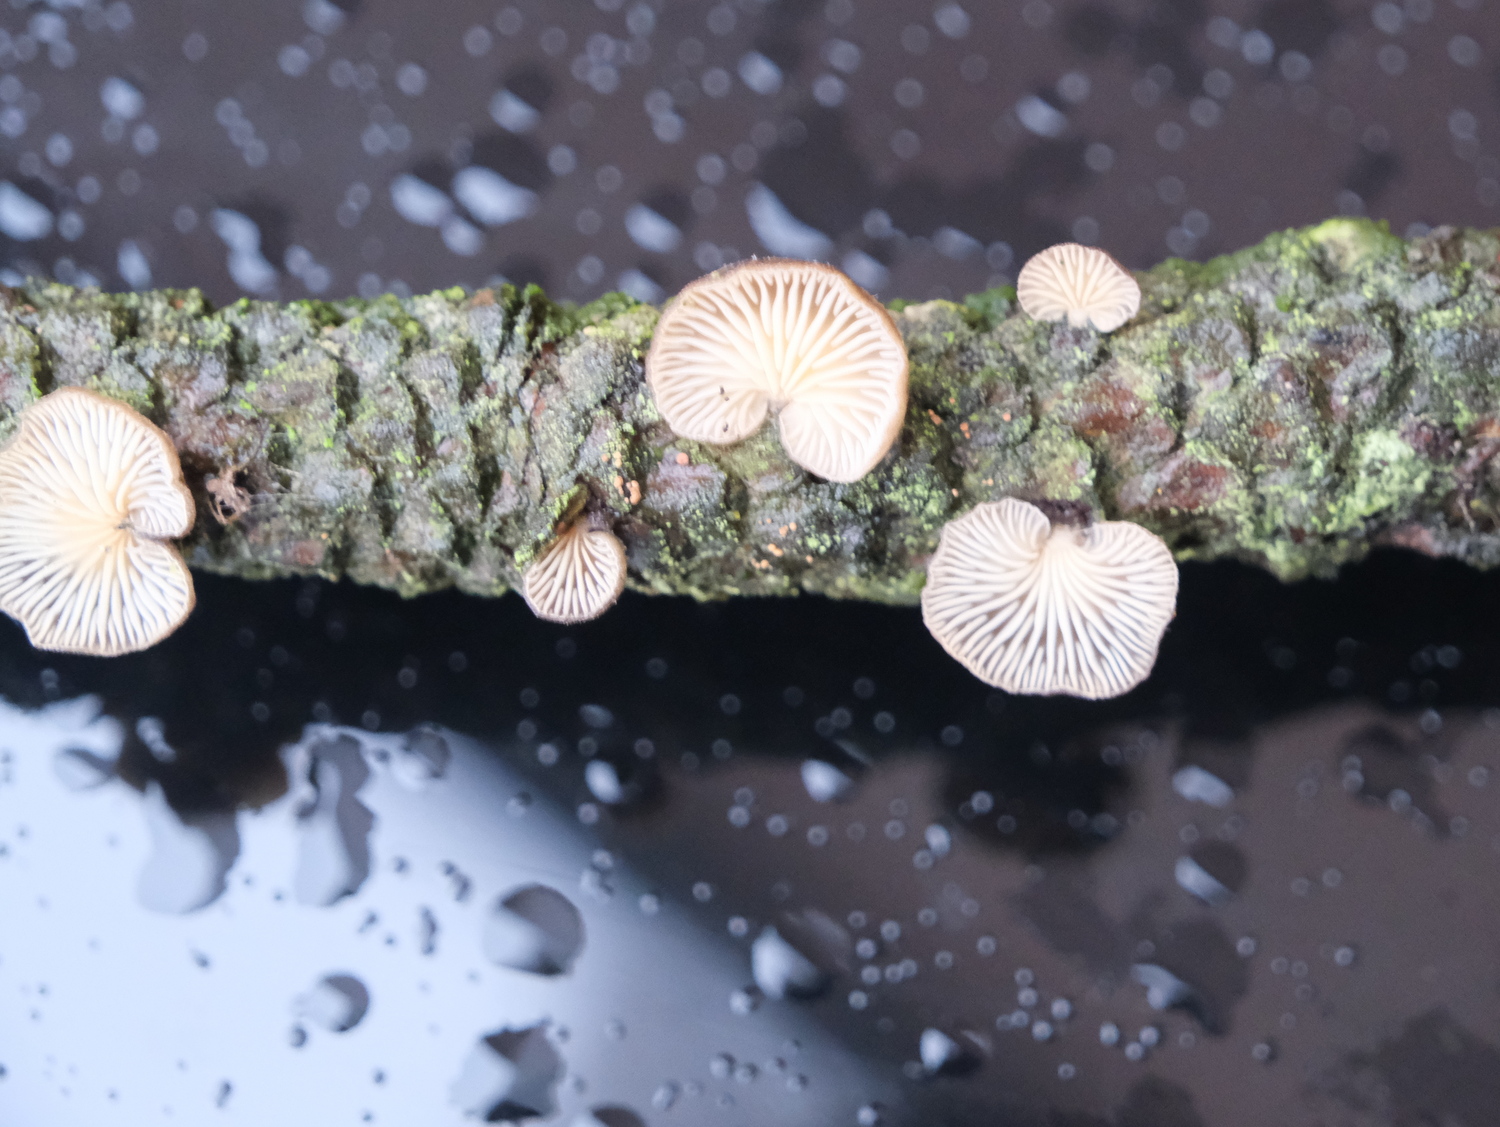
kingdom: Fungi
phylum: Basidiomycota
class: Agaricomycetes
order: Agaricales
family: Pleurotaceae
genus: Resupinatus
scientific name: Resupinatus trichotis
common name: mørkfiltet barkhat
